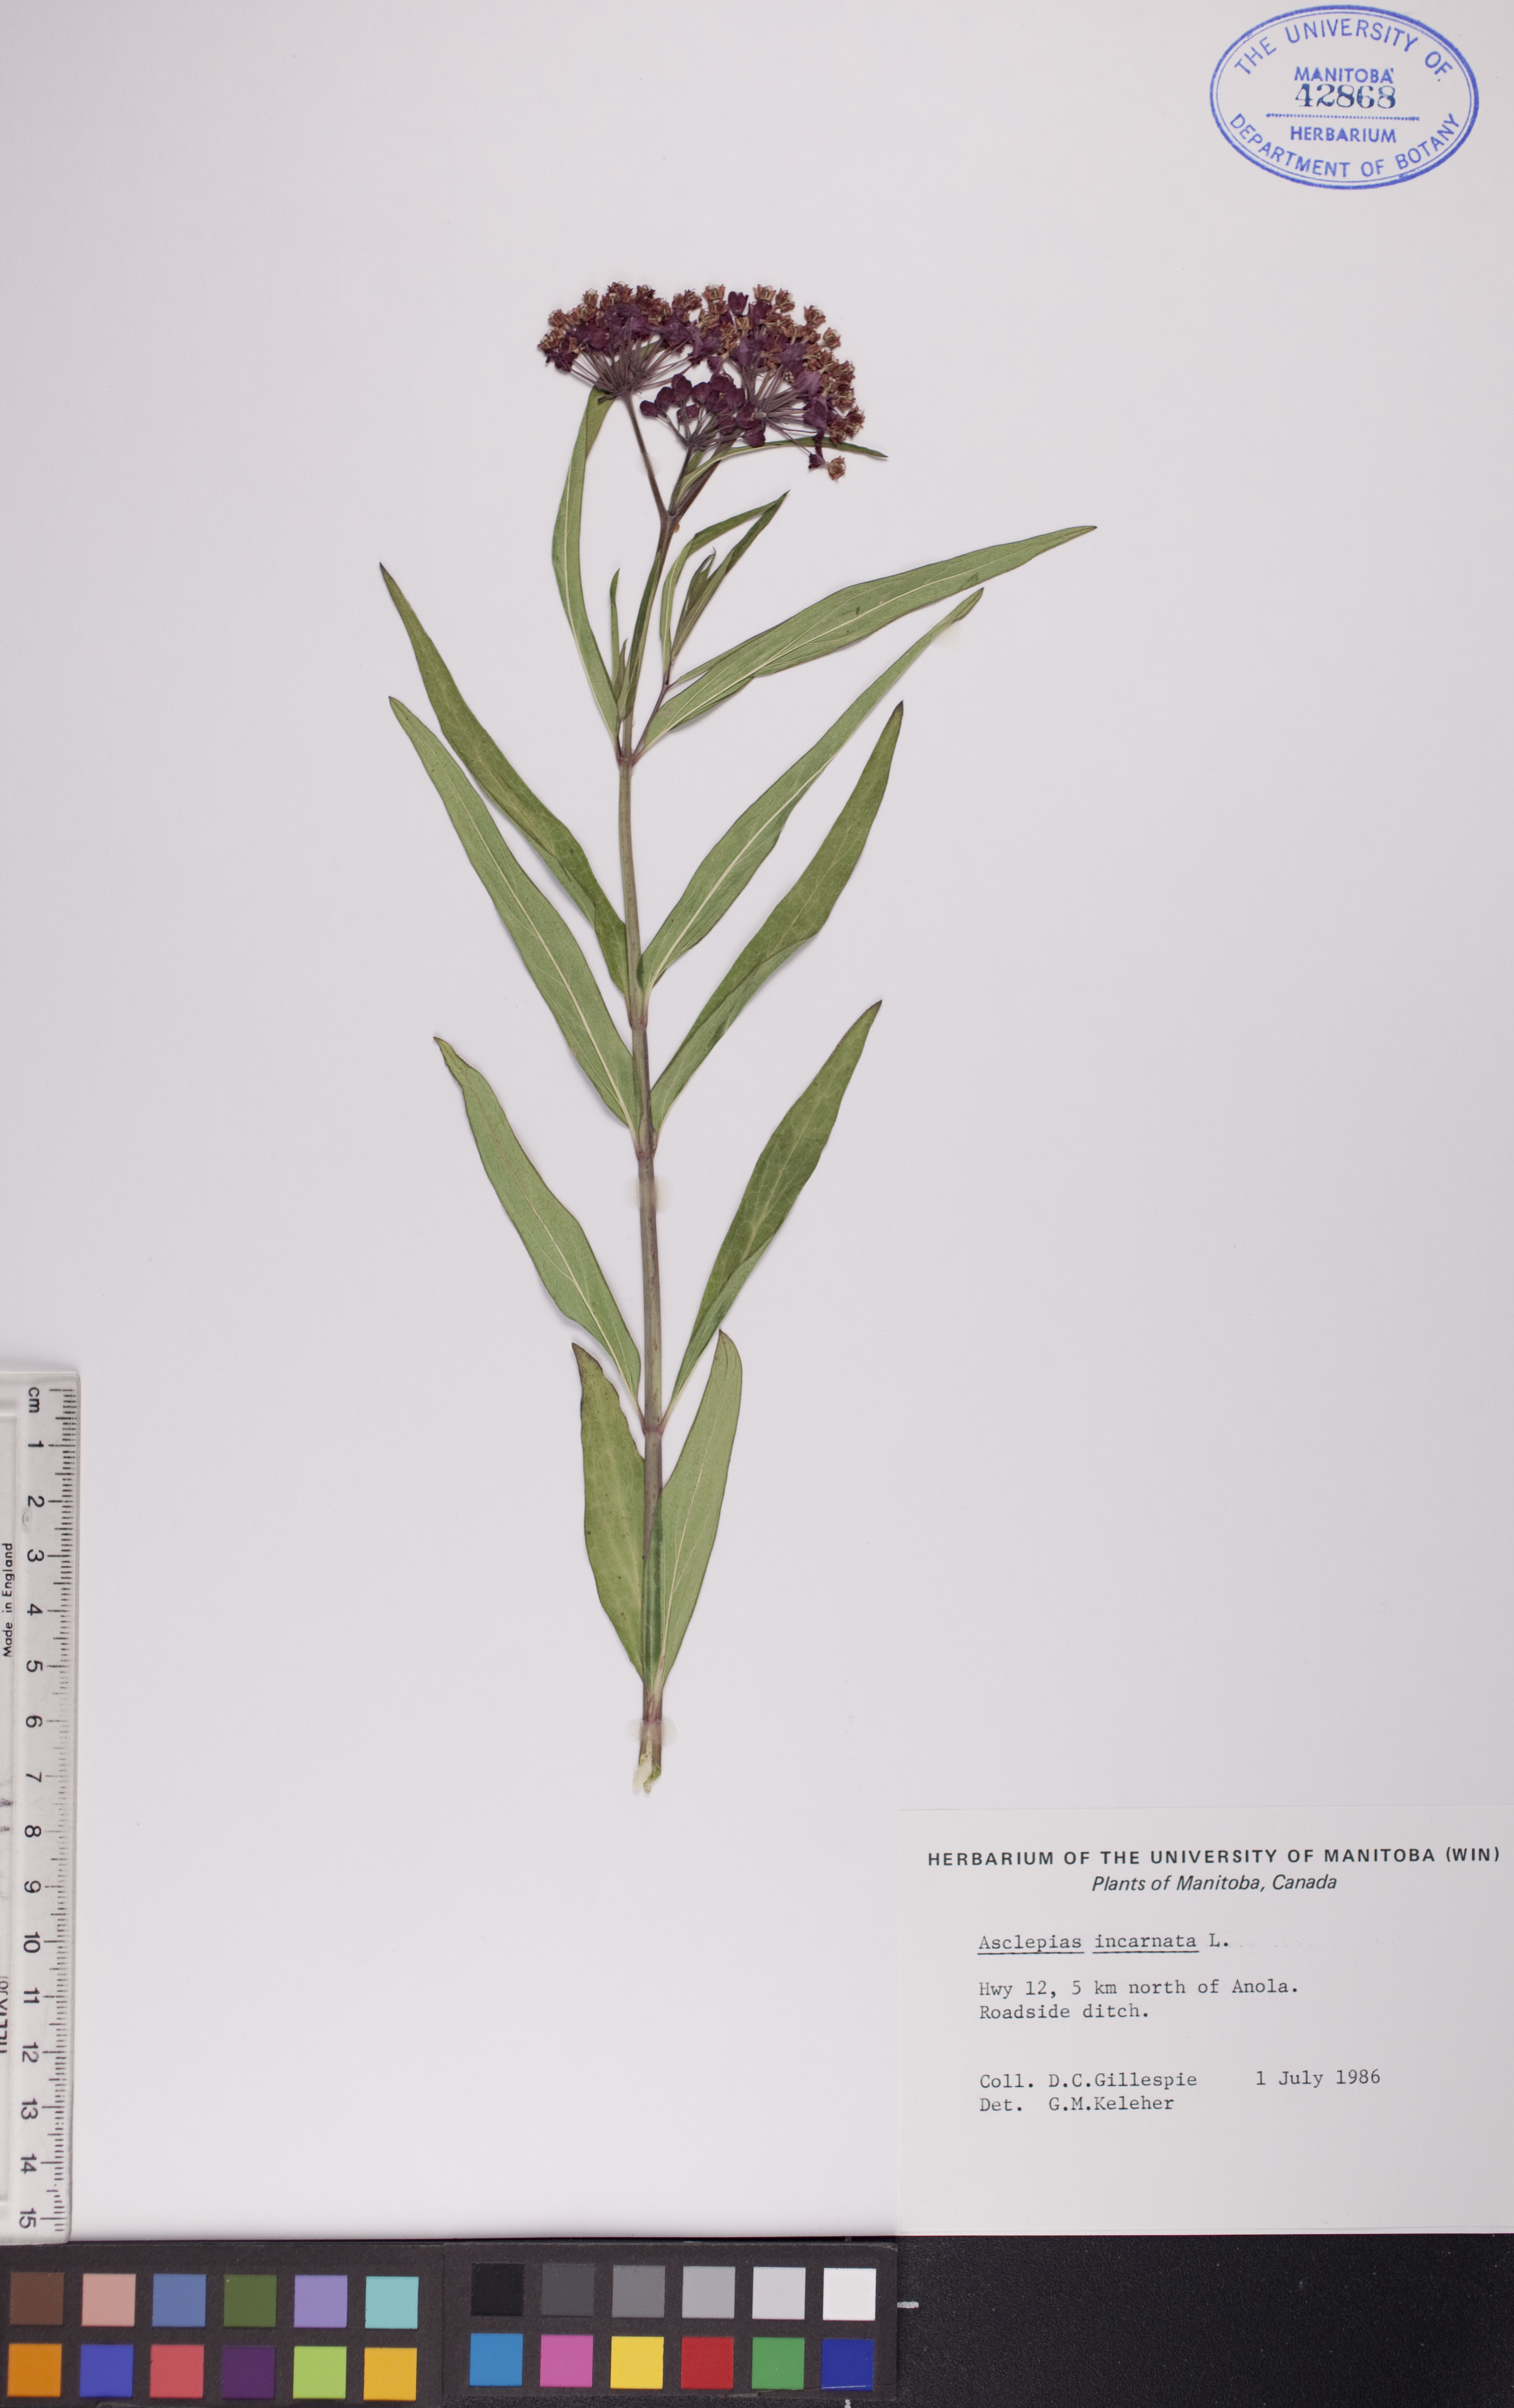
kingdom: Plantae
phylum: Tracheophyta
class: Magnoliopsida
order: Gentianales
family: Apocynaceae
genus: Asclepias
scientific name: Asclepias incarnata
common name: Swamp milkweed
